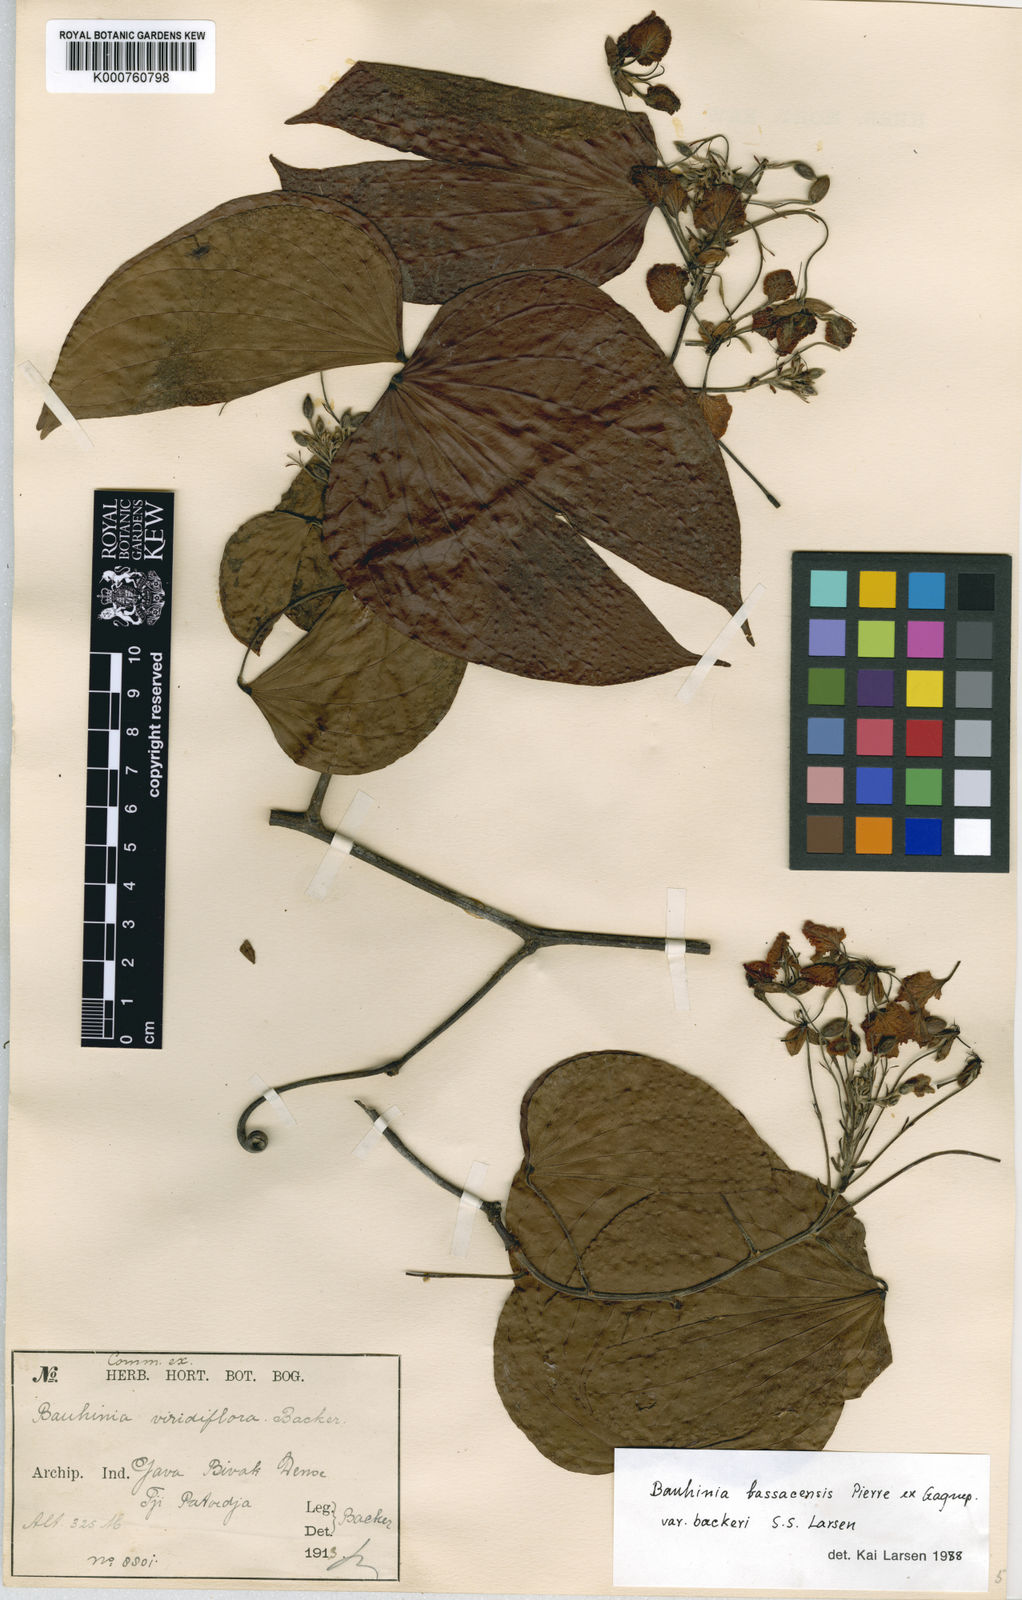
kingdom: Plantae
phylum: Tracheophyta
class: Magnoliopsida
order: Fabales
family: Fabaceae
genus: Phanera
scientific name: Phanera bassacensis
